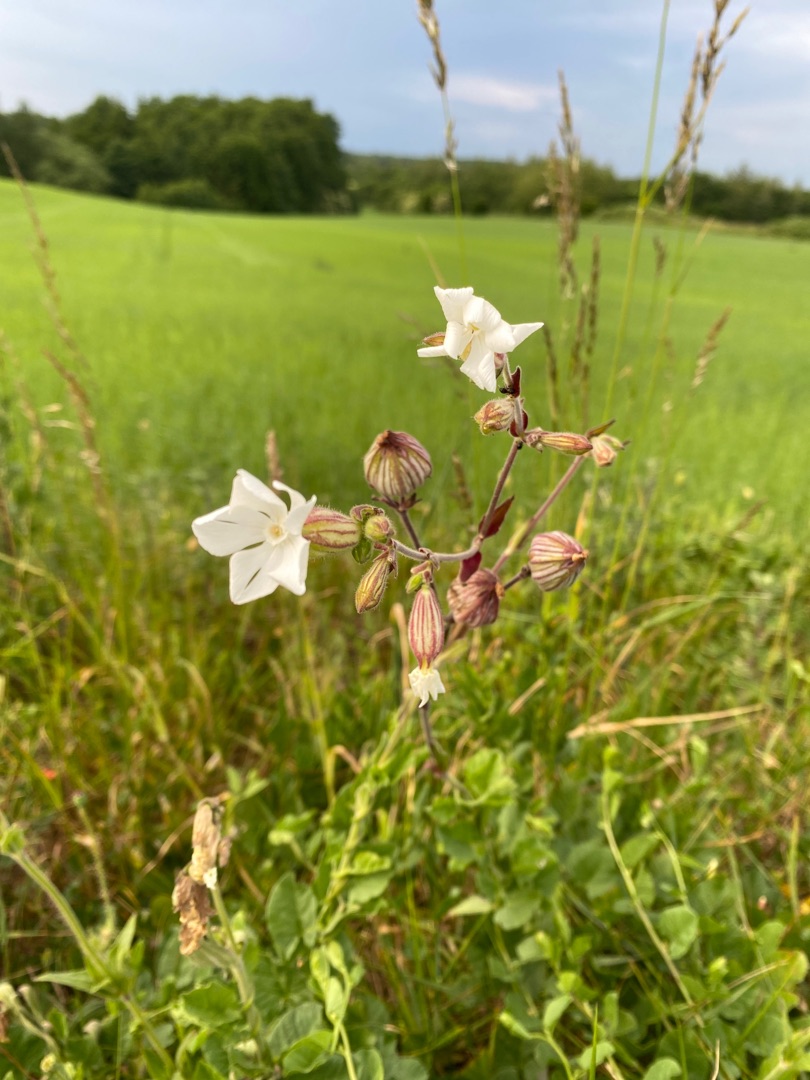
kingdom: Plantae
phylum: Tracheophyta
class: Magnoliopsida
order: Caryophyllales
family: Caryophyllaceae
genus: Silene
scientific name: Silene latifolia
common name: Aftenpragtstjerne
